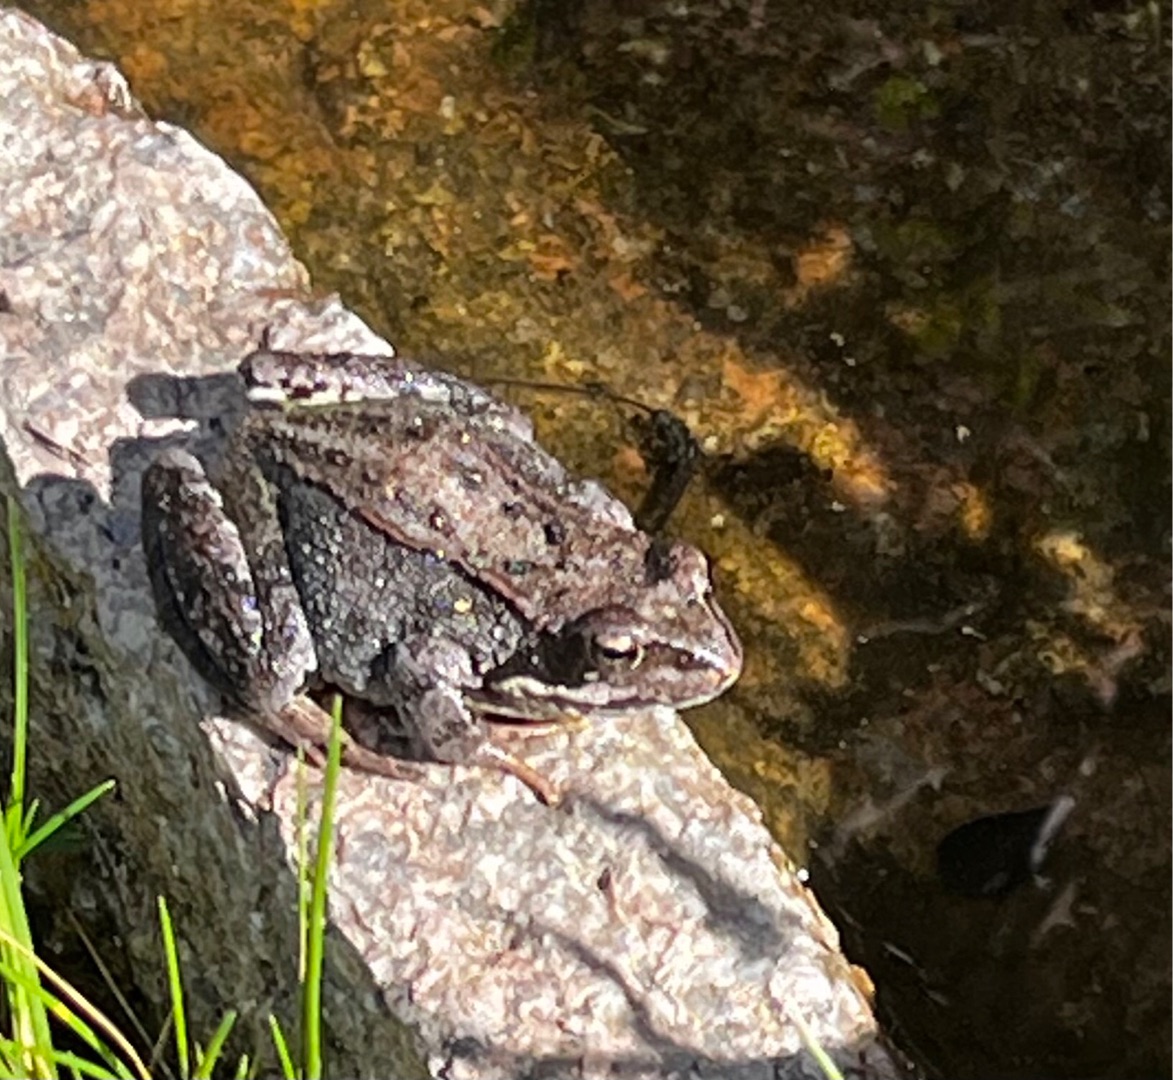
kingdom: Animalia
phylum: Chordata
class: Amphibia
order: Anura
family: Ranidae
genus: Rana
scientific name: Rana temporaria
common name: Butsnudet frø
